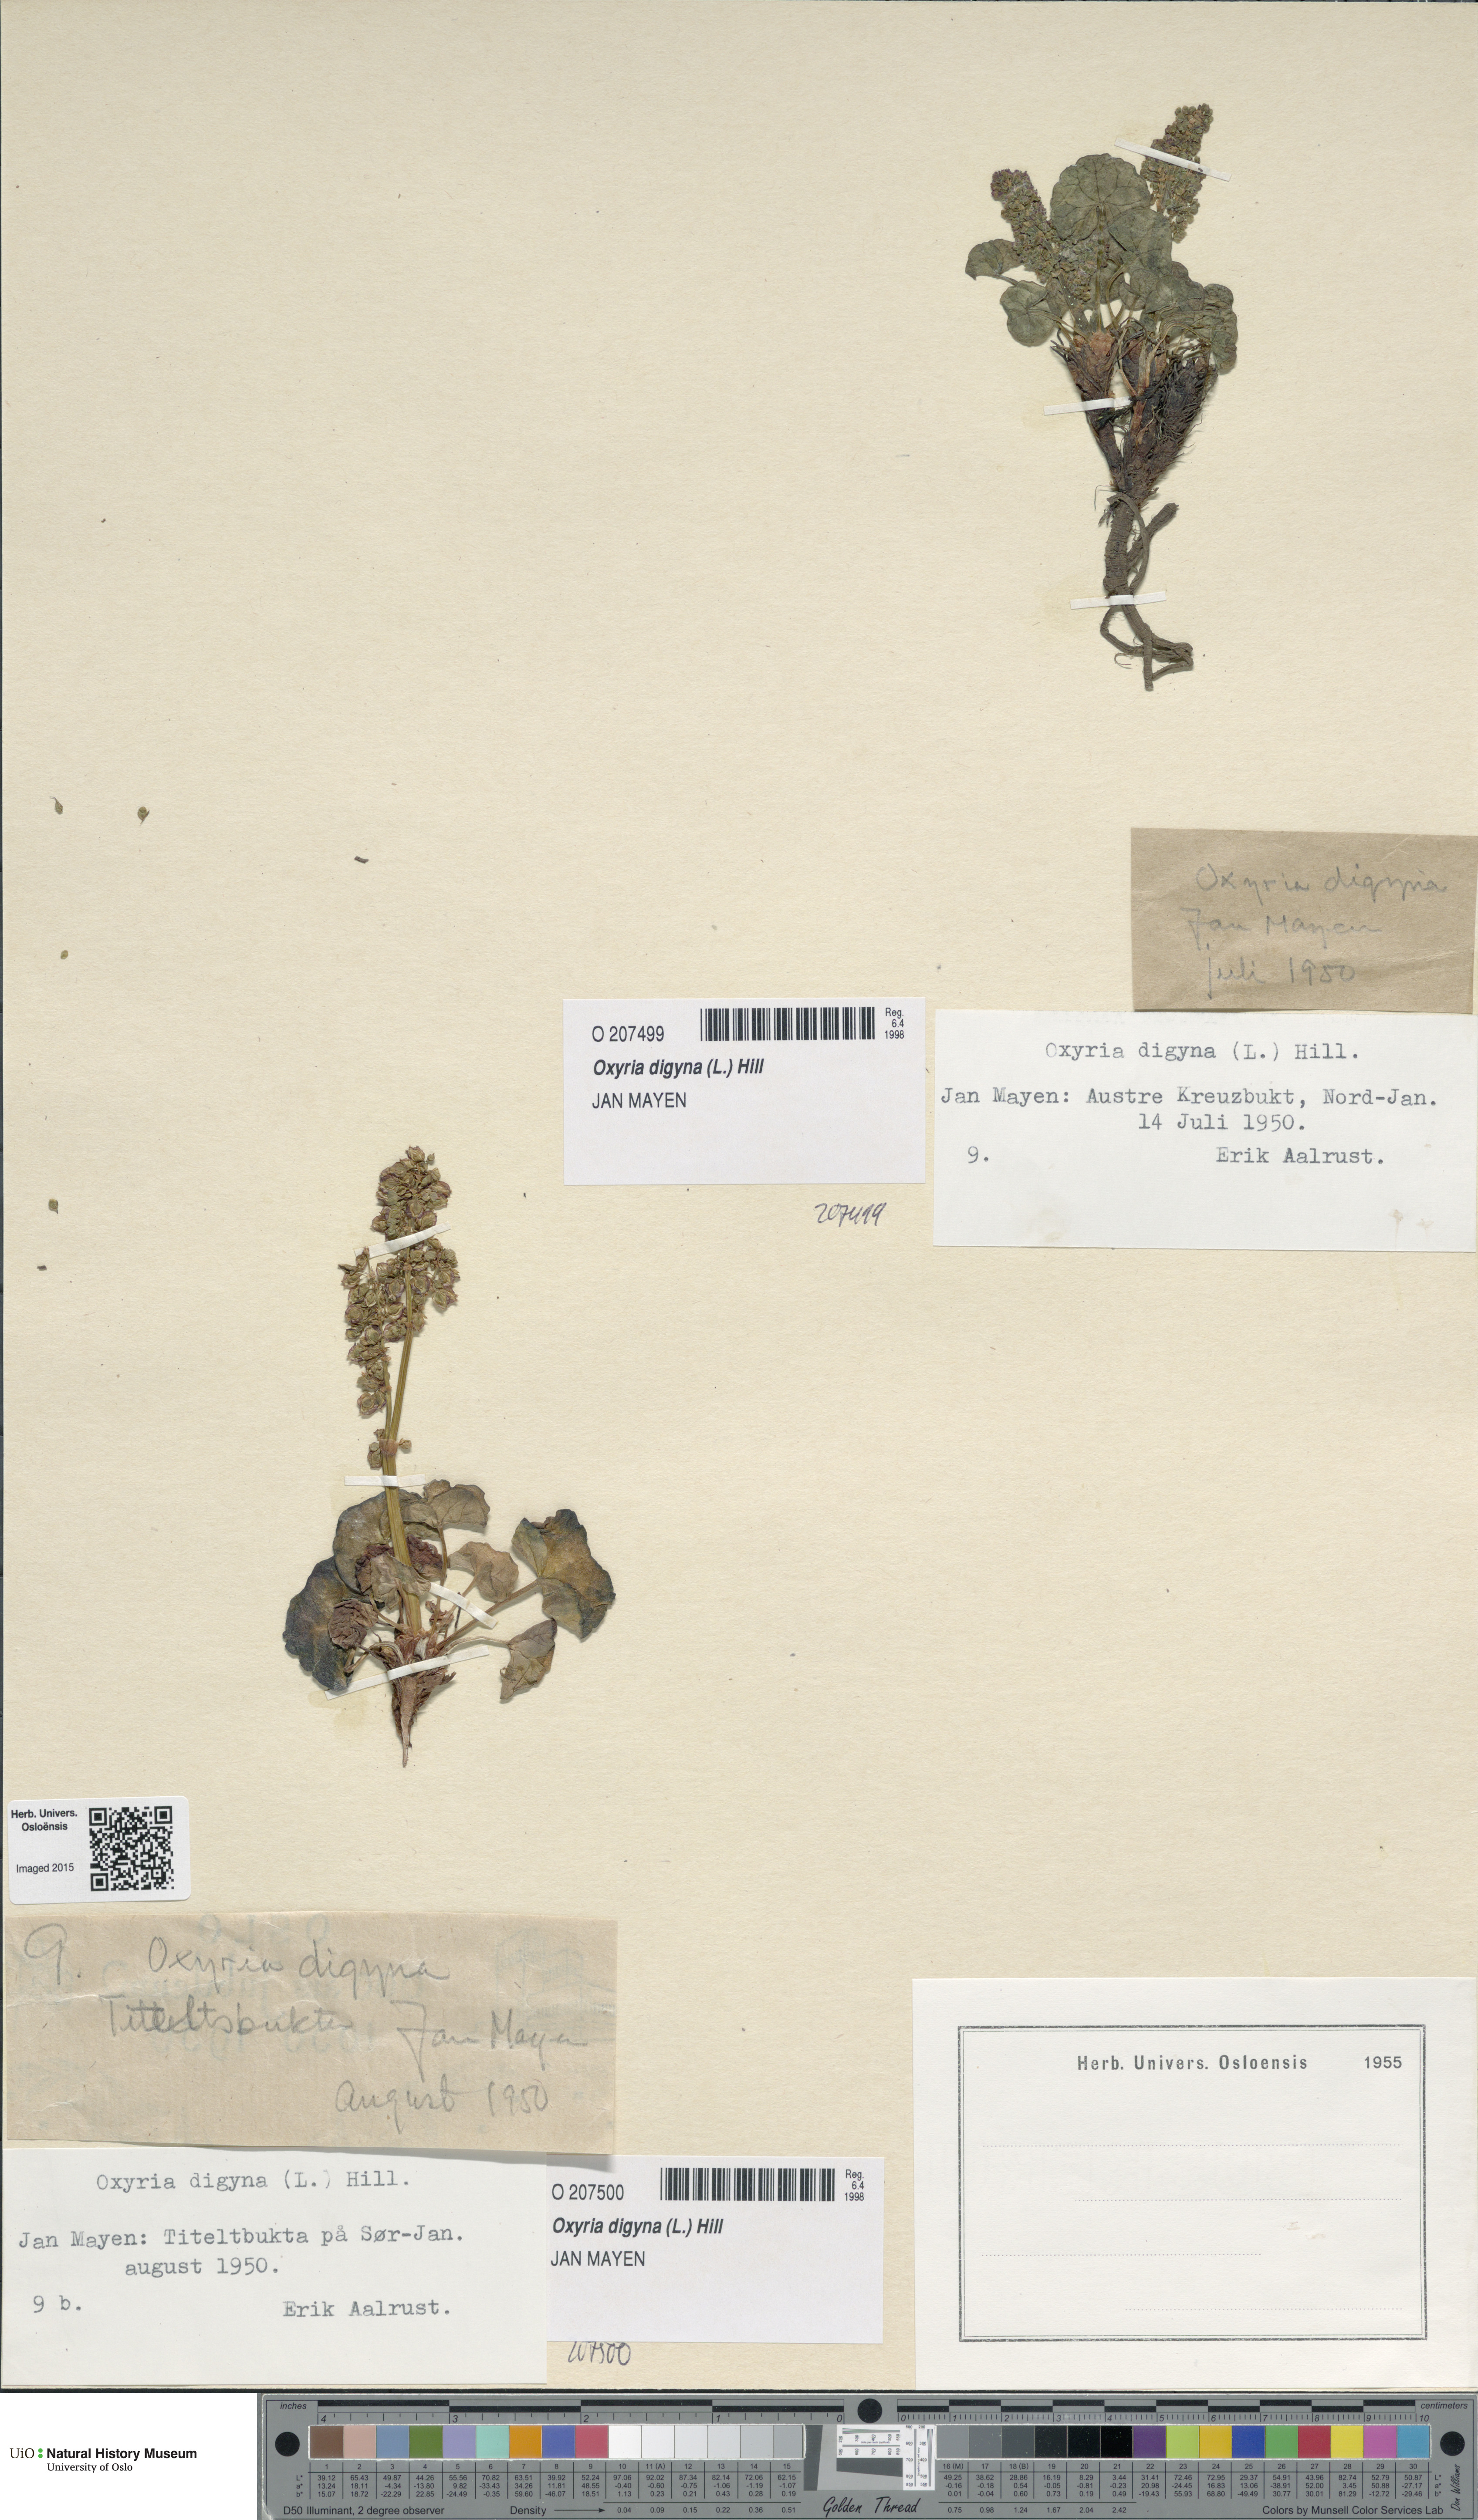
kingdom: Plantae
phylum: Tracheophyta
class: Magnoliopsida
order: Caryophyllales
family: Polygonaceae
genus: Oxyria
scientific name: Oxyria digyna
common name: Alpine mountain-sorrel
